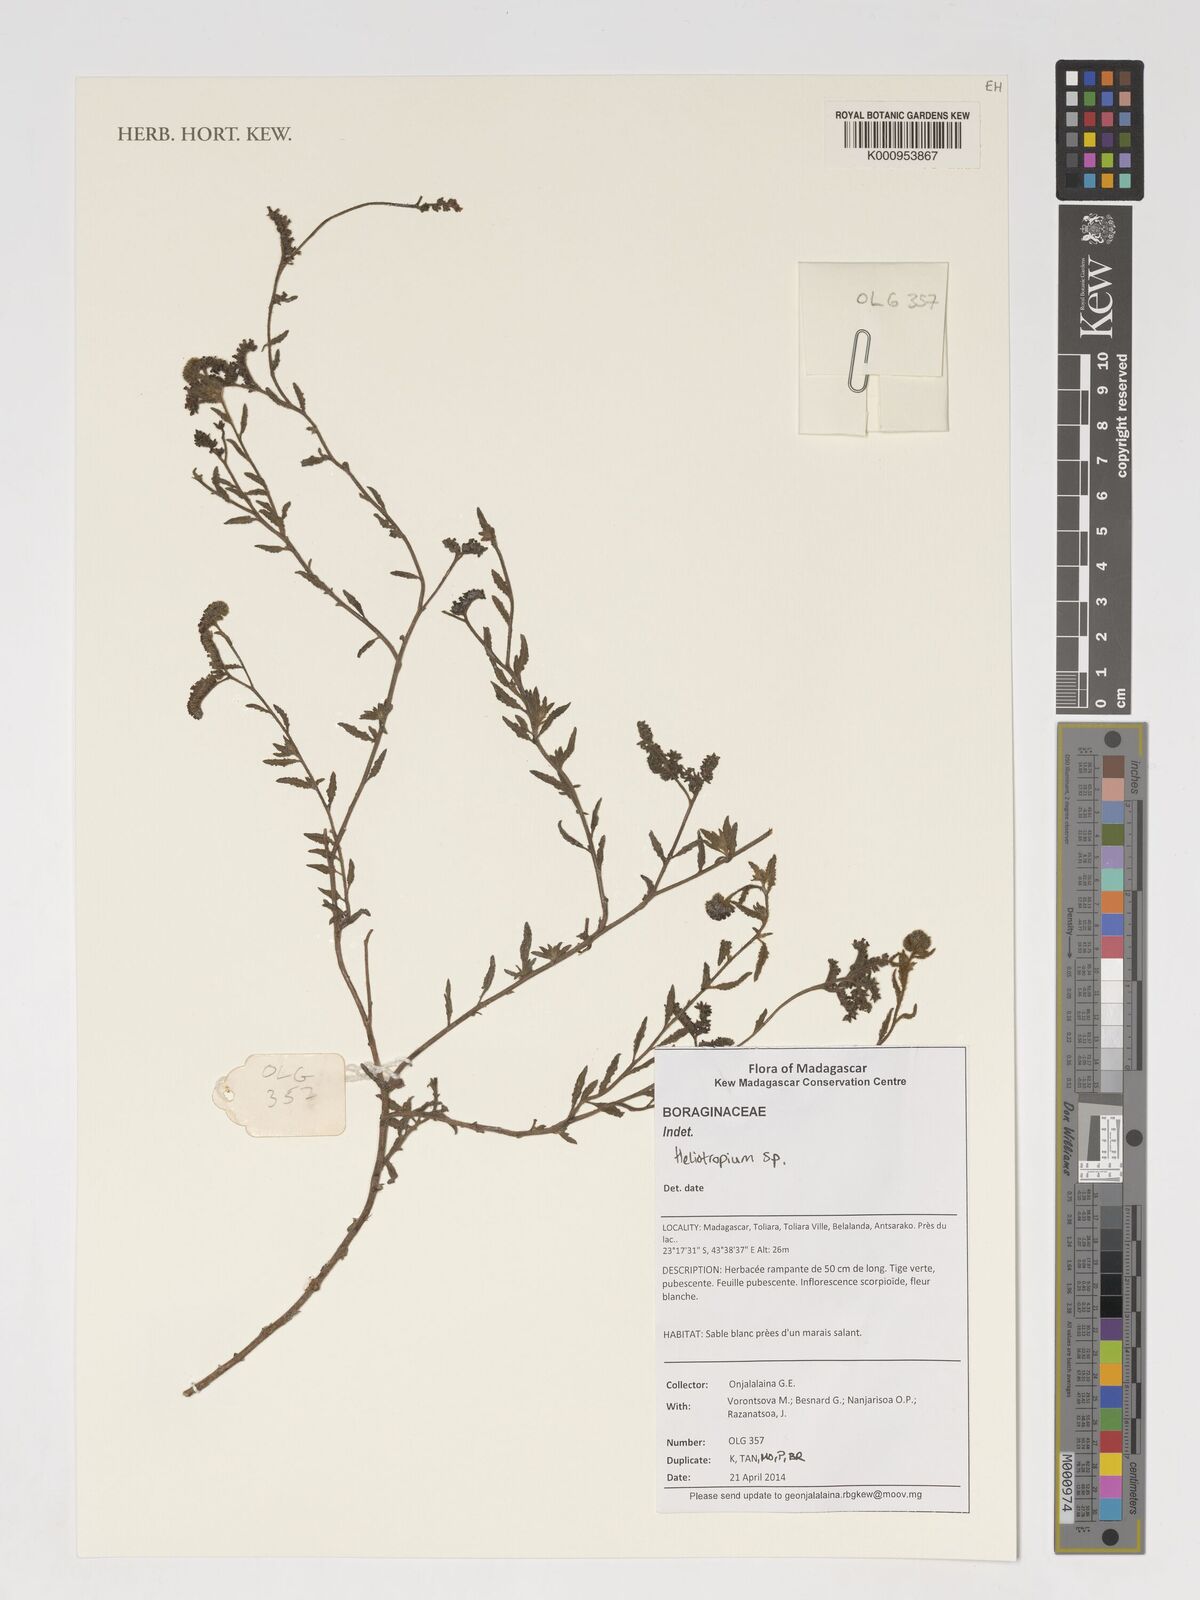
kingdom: Plantae
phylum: Tracheophyta
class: Magnoliopsida
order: Boraginales
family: Heliotropiaceae
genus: Heliotropium
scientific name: Heliotropium
